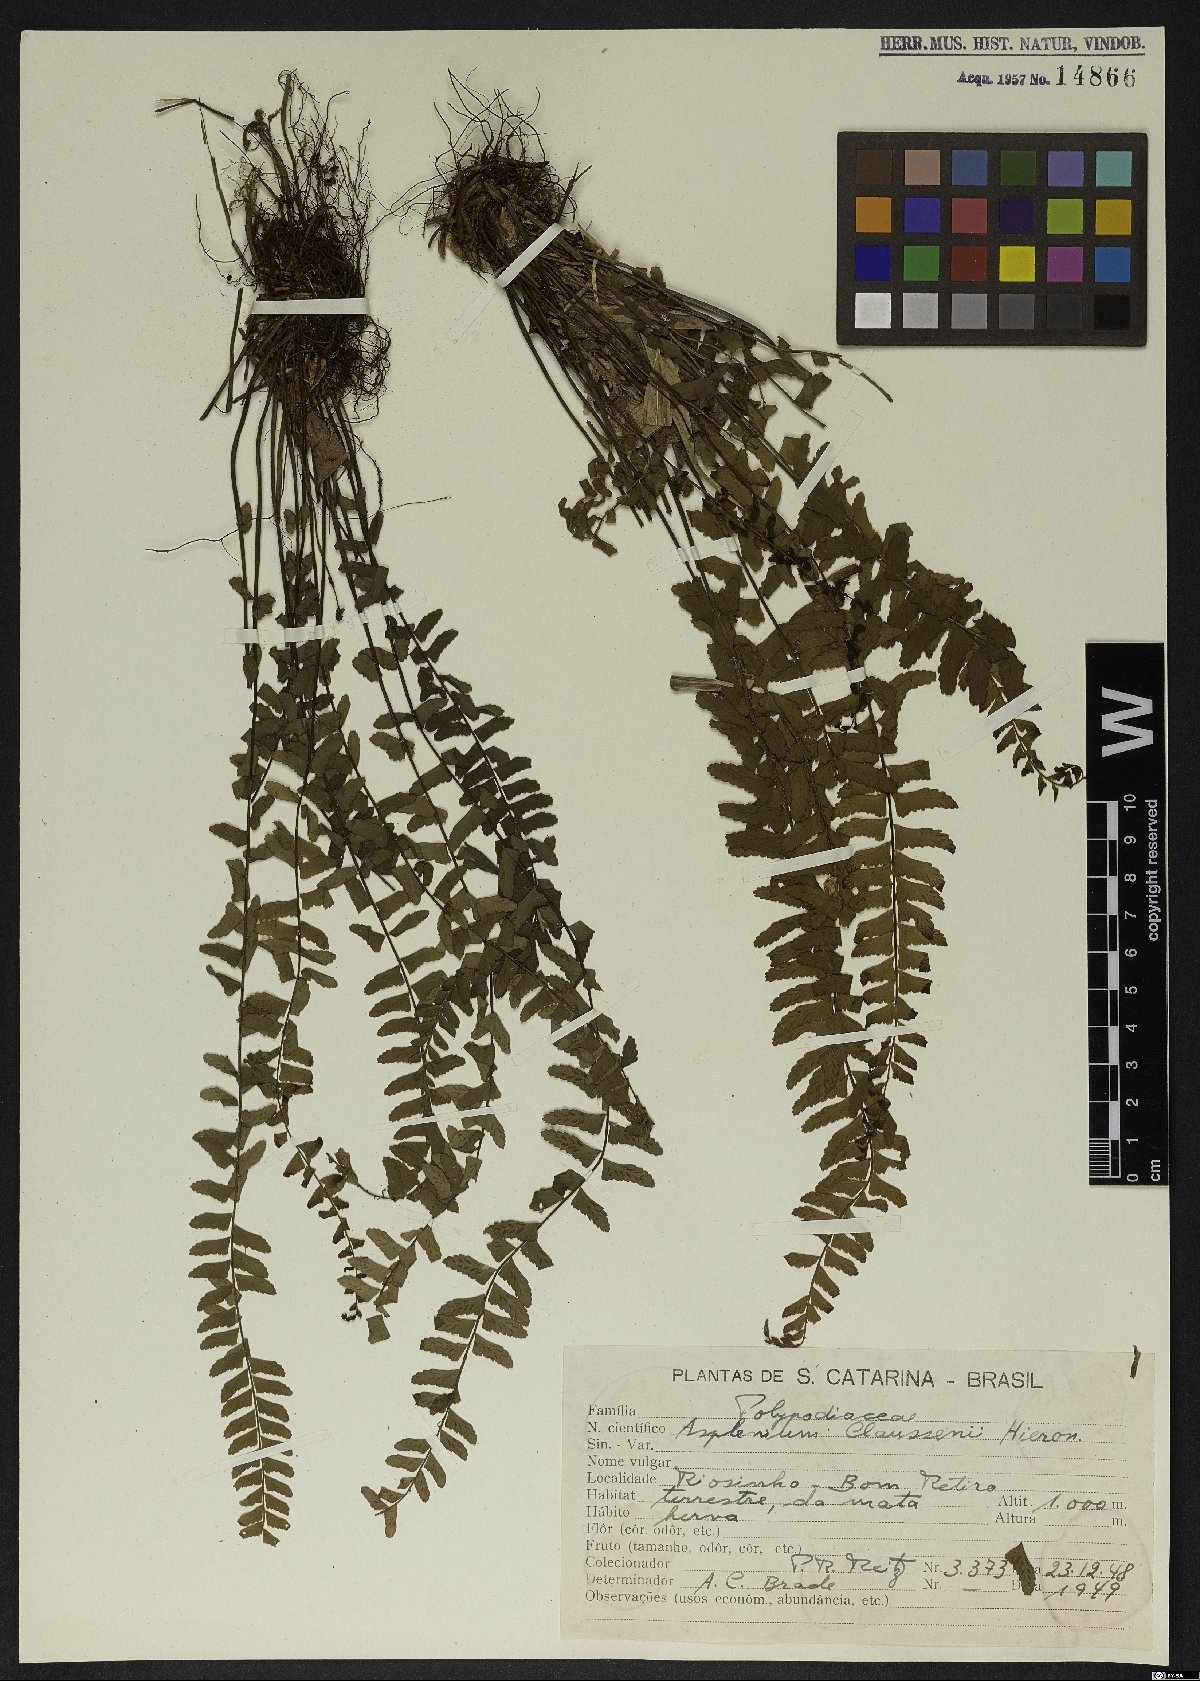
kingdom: Plantae
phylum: Tracheophyta
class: Polypodiopsida
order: Polypodiales
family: Aspleniaceae
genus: Asplenium
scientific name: Asplenium claussenii
